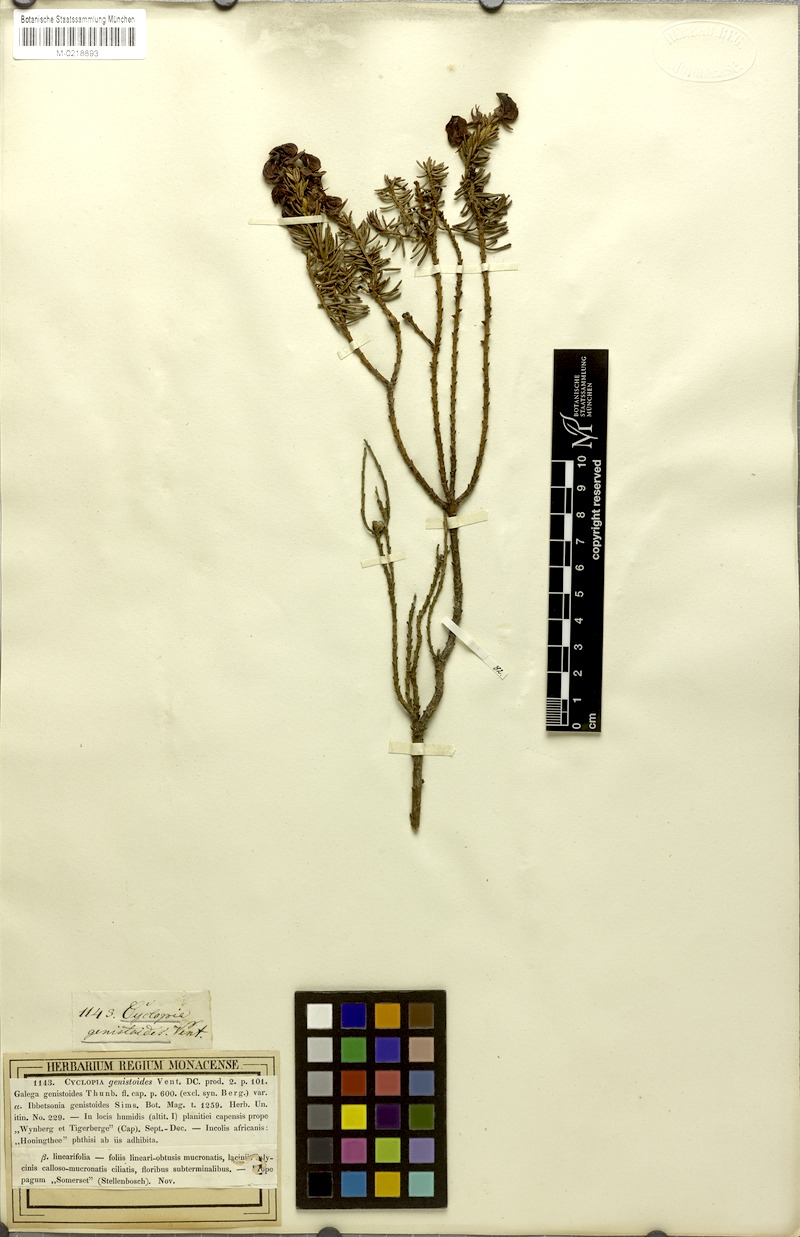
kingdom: Plantae
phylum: Tracheophyta
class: Magnoliopsida
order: Fabales
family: Fabaceae
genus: Cyclopia
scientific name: Cyclopia genistoides
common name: Honeybush tea
